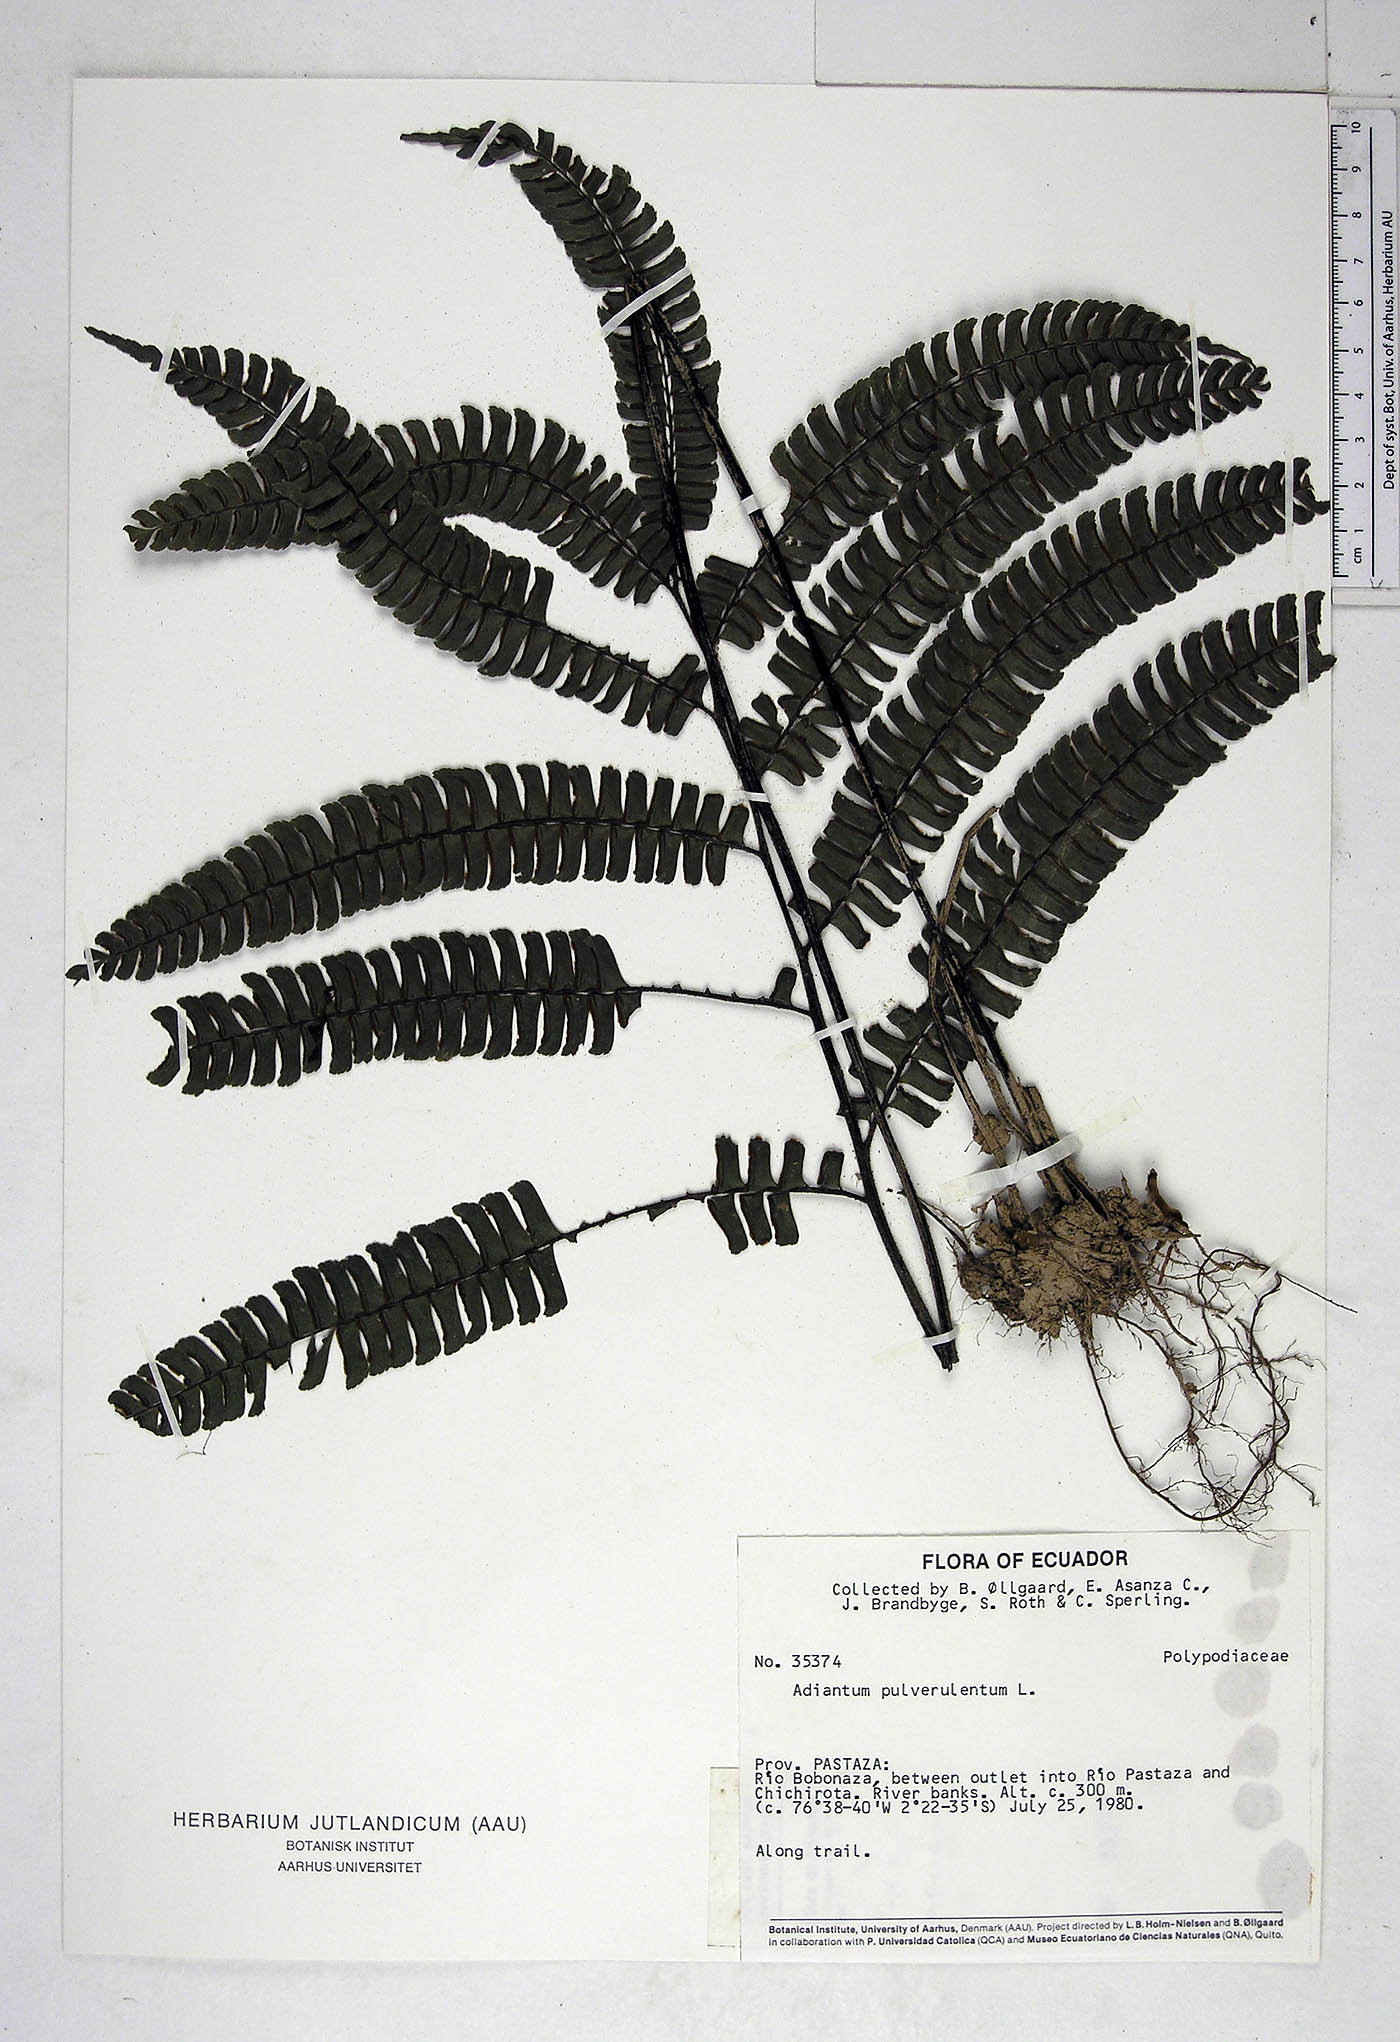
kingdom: Plantae
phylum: Tracheophyta
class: Polypodiopsida
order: Polypodiales
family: Pteridaceae
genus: Adiantum
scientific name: Adiantum pulverulentum
